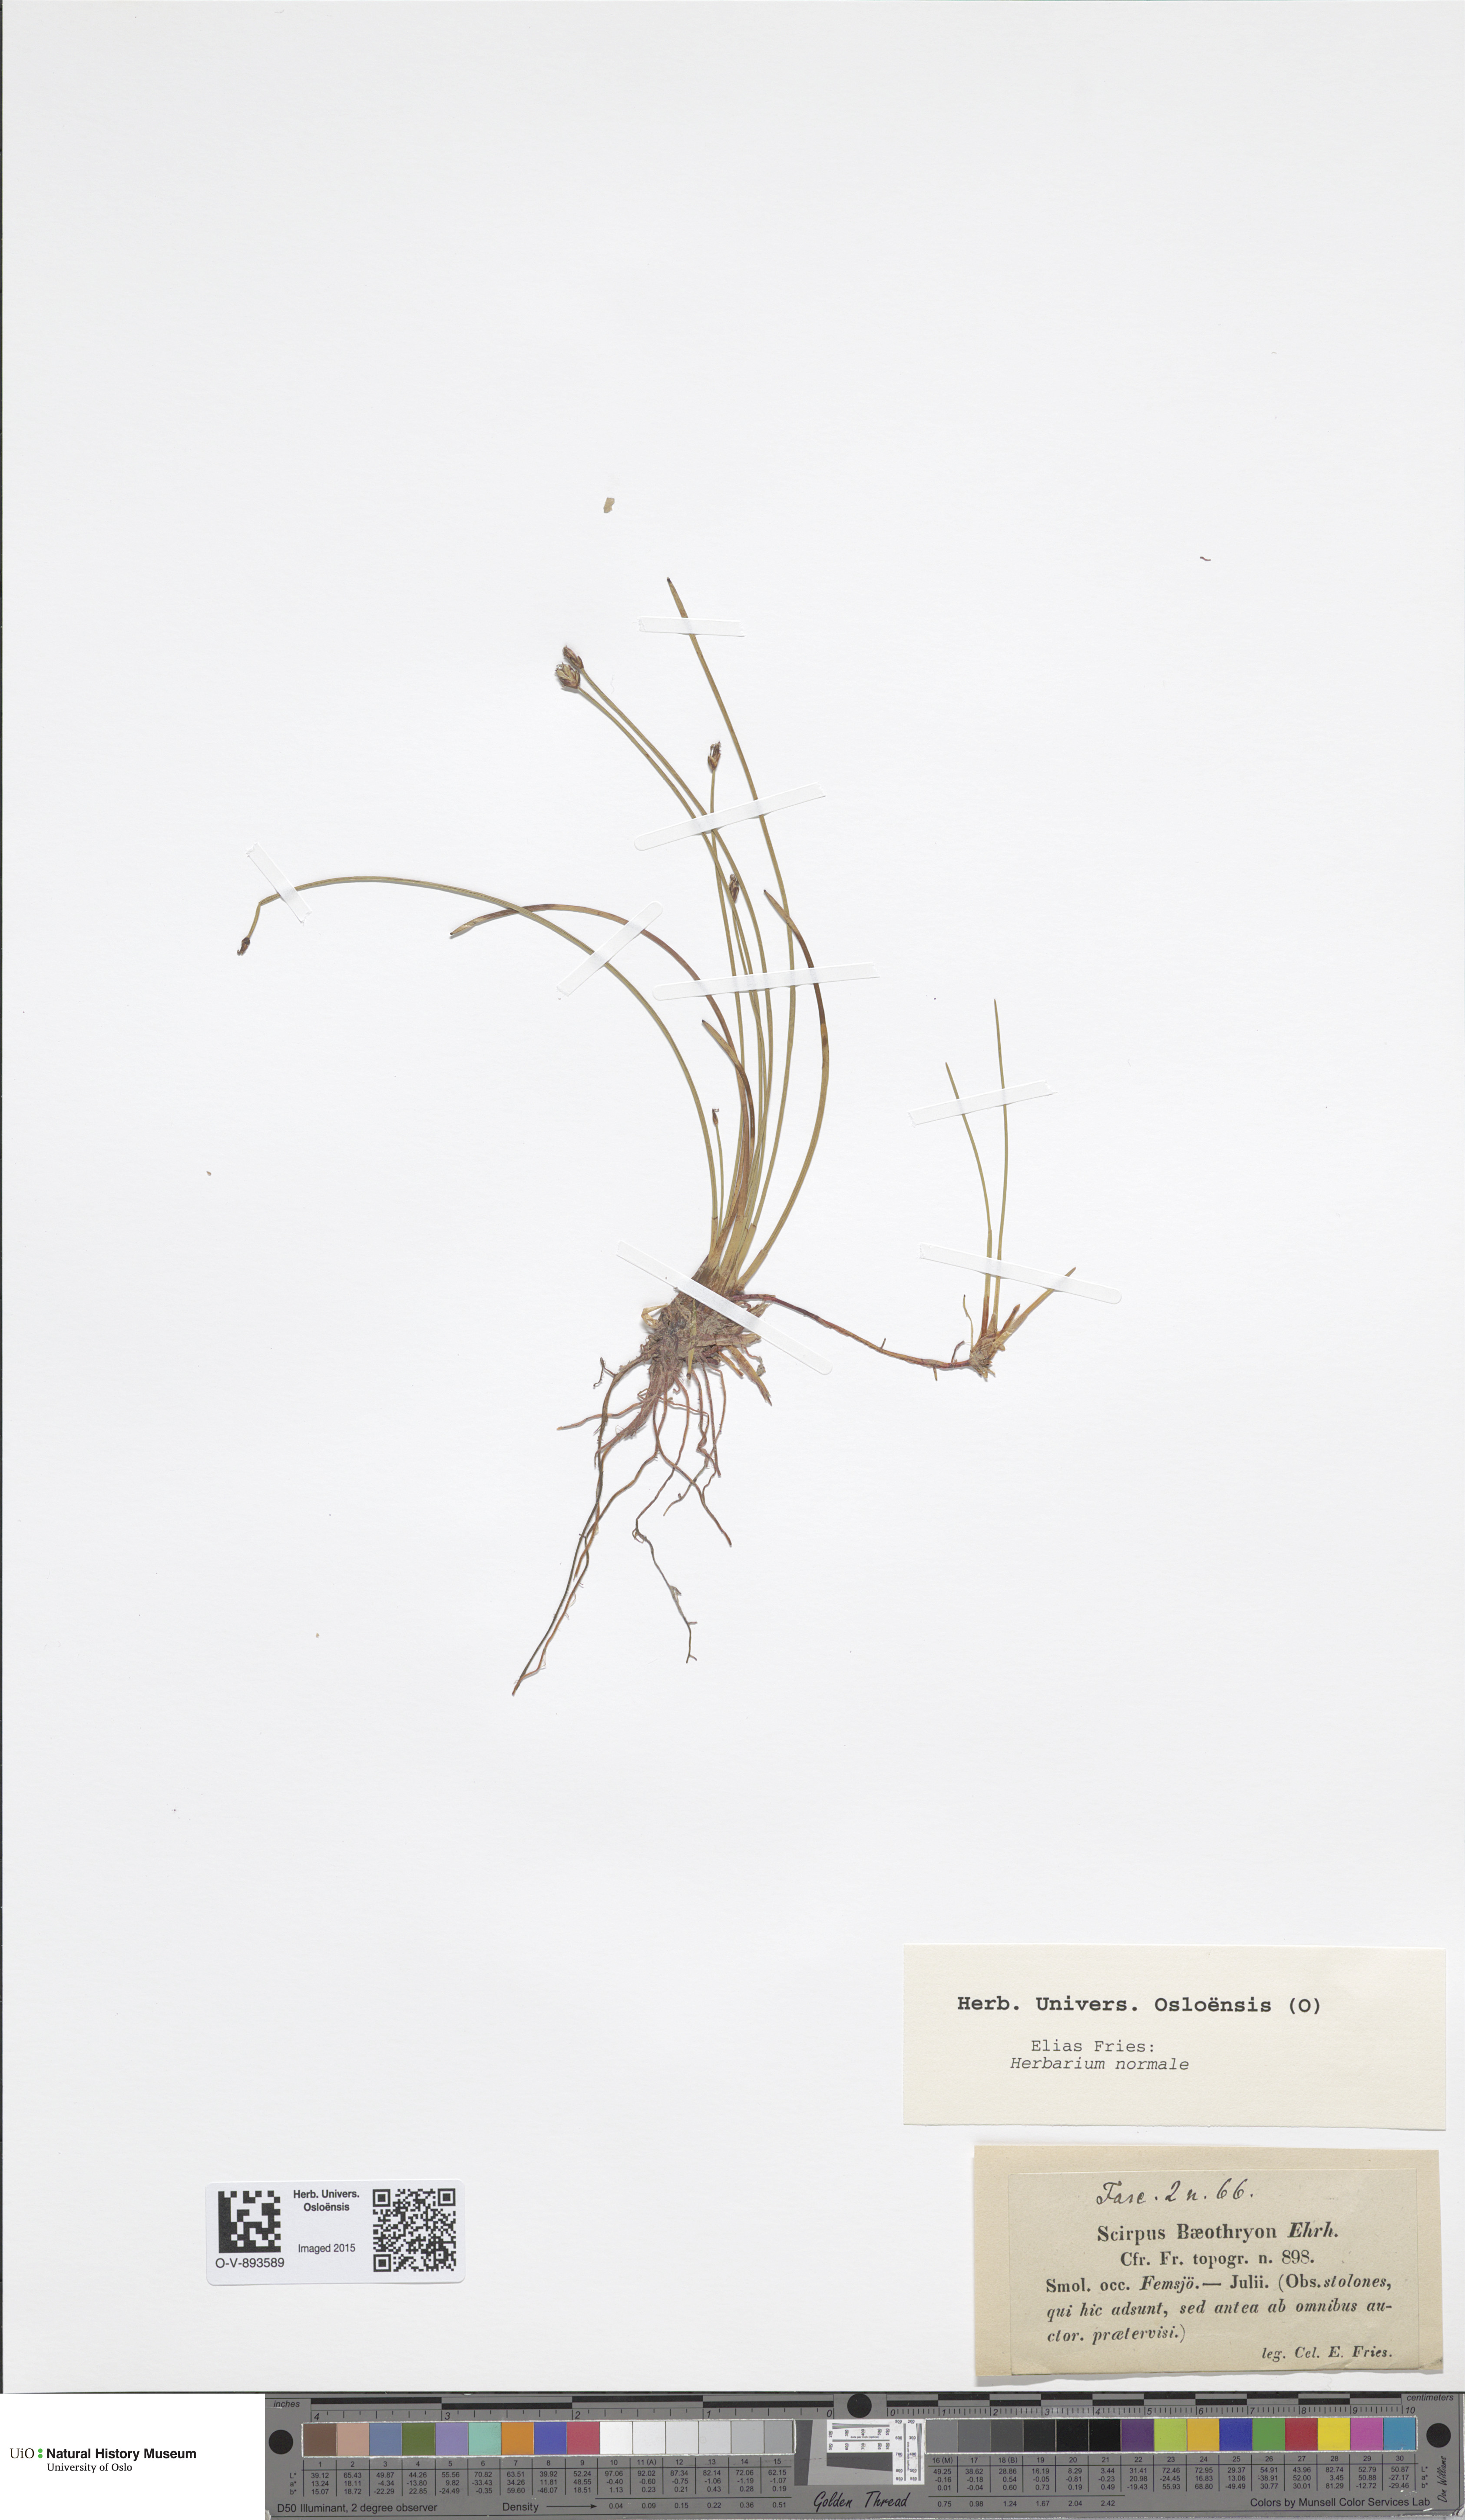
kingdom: Plantae
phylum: Tracheophyta
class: Liliopsida
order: Poales
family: Cyperaceae
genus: Eleocharis
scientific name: Eleocharis quinqueflora
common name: Few-flowered spike-rush
